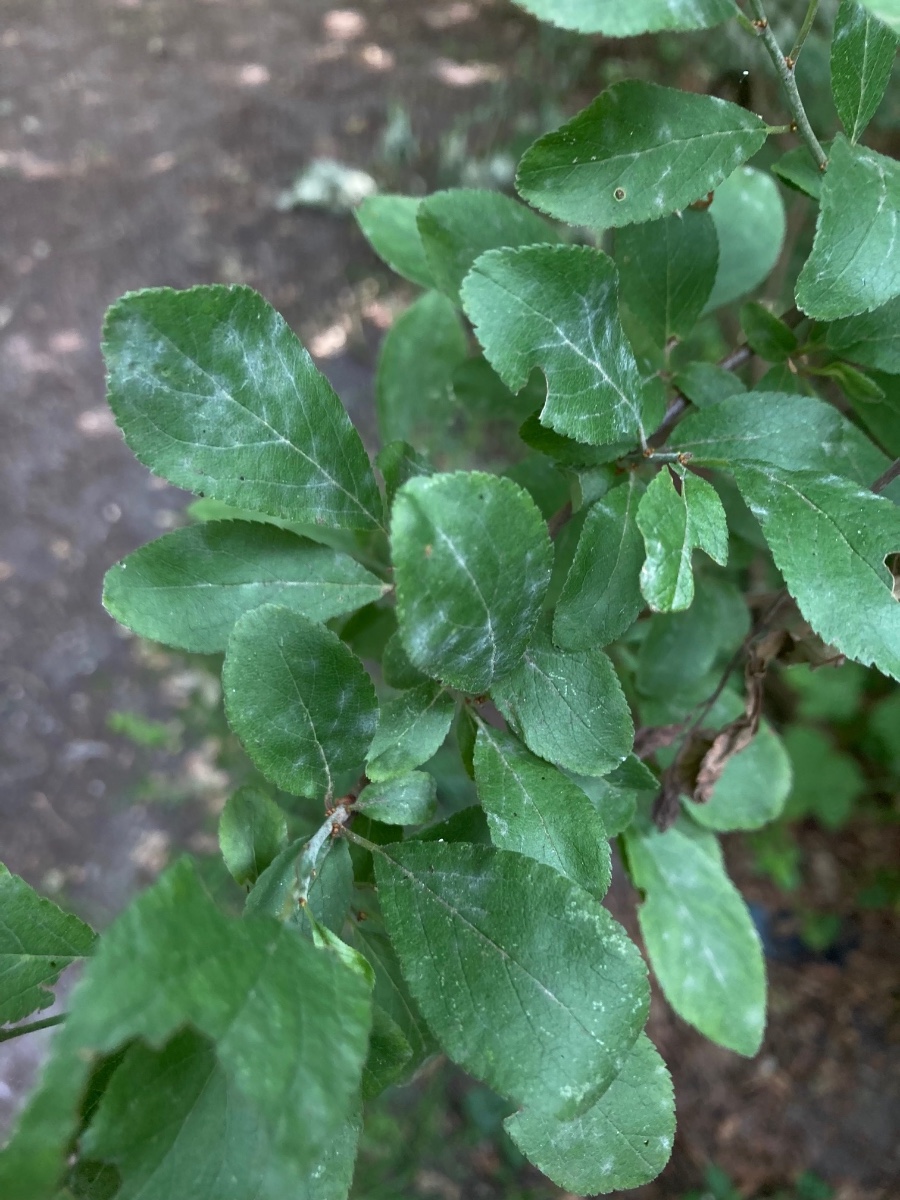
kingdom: Fungi
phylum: Ascomycota
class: Leotiomycetes
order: Helotiales
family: Erysiphaceae
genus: Erysiphe
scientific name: Erysiphe prunastri
